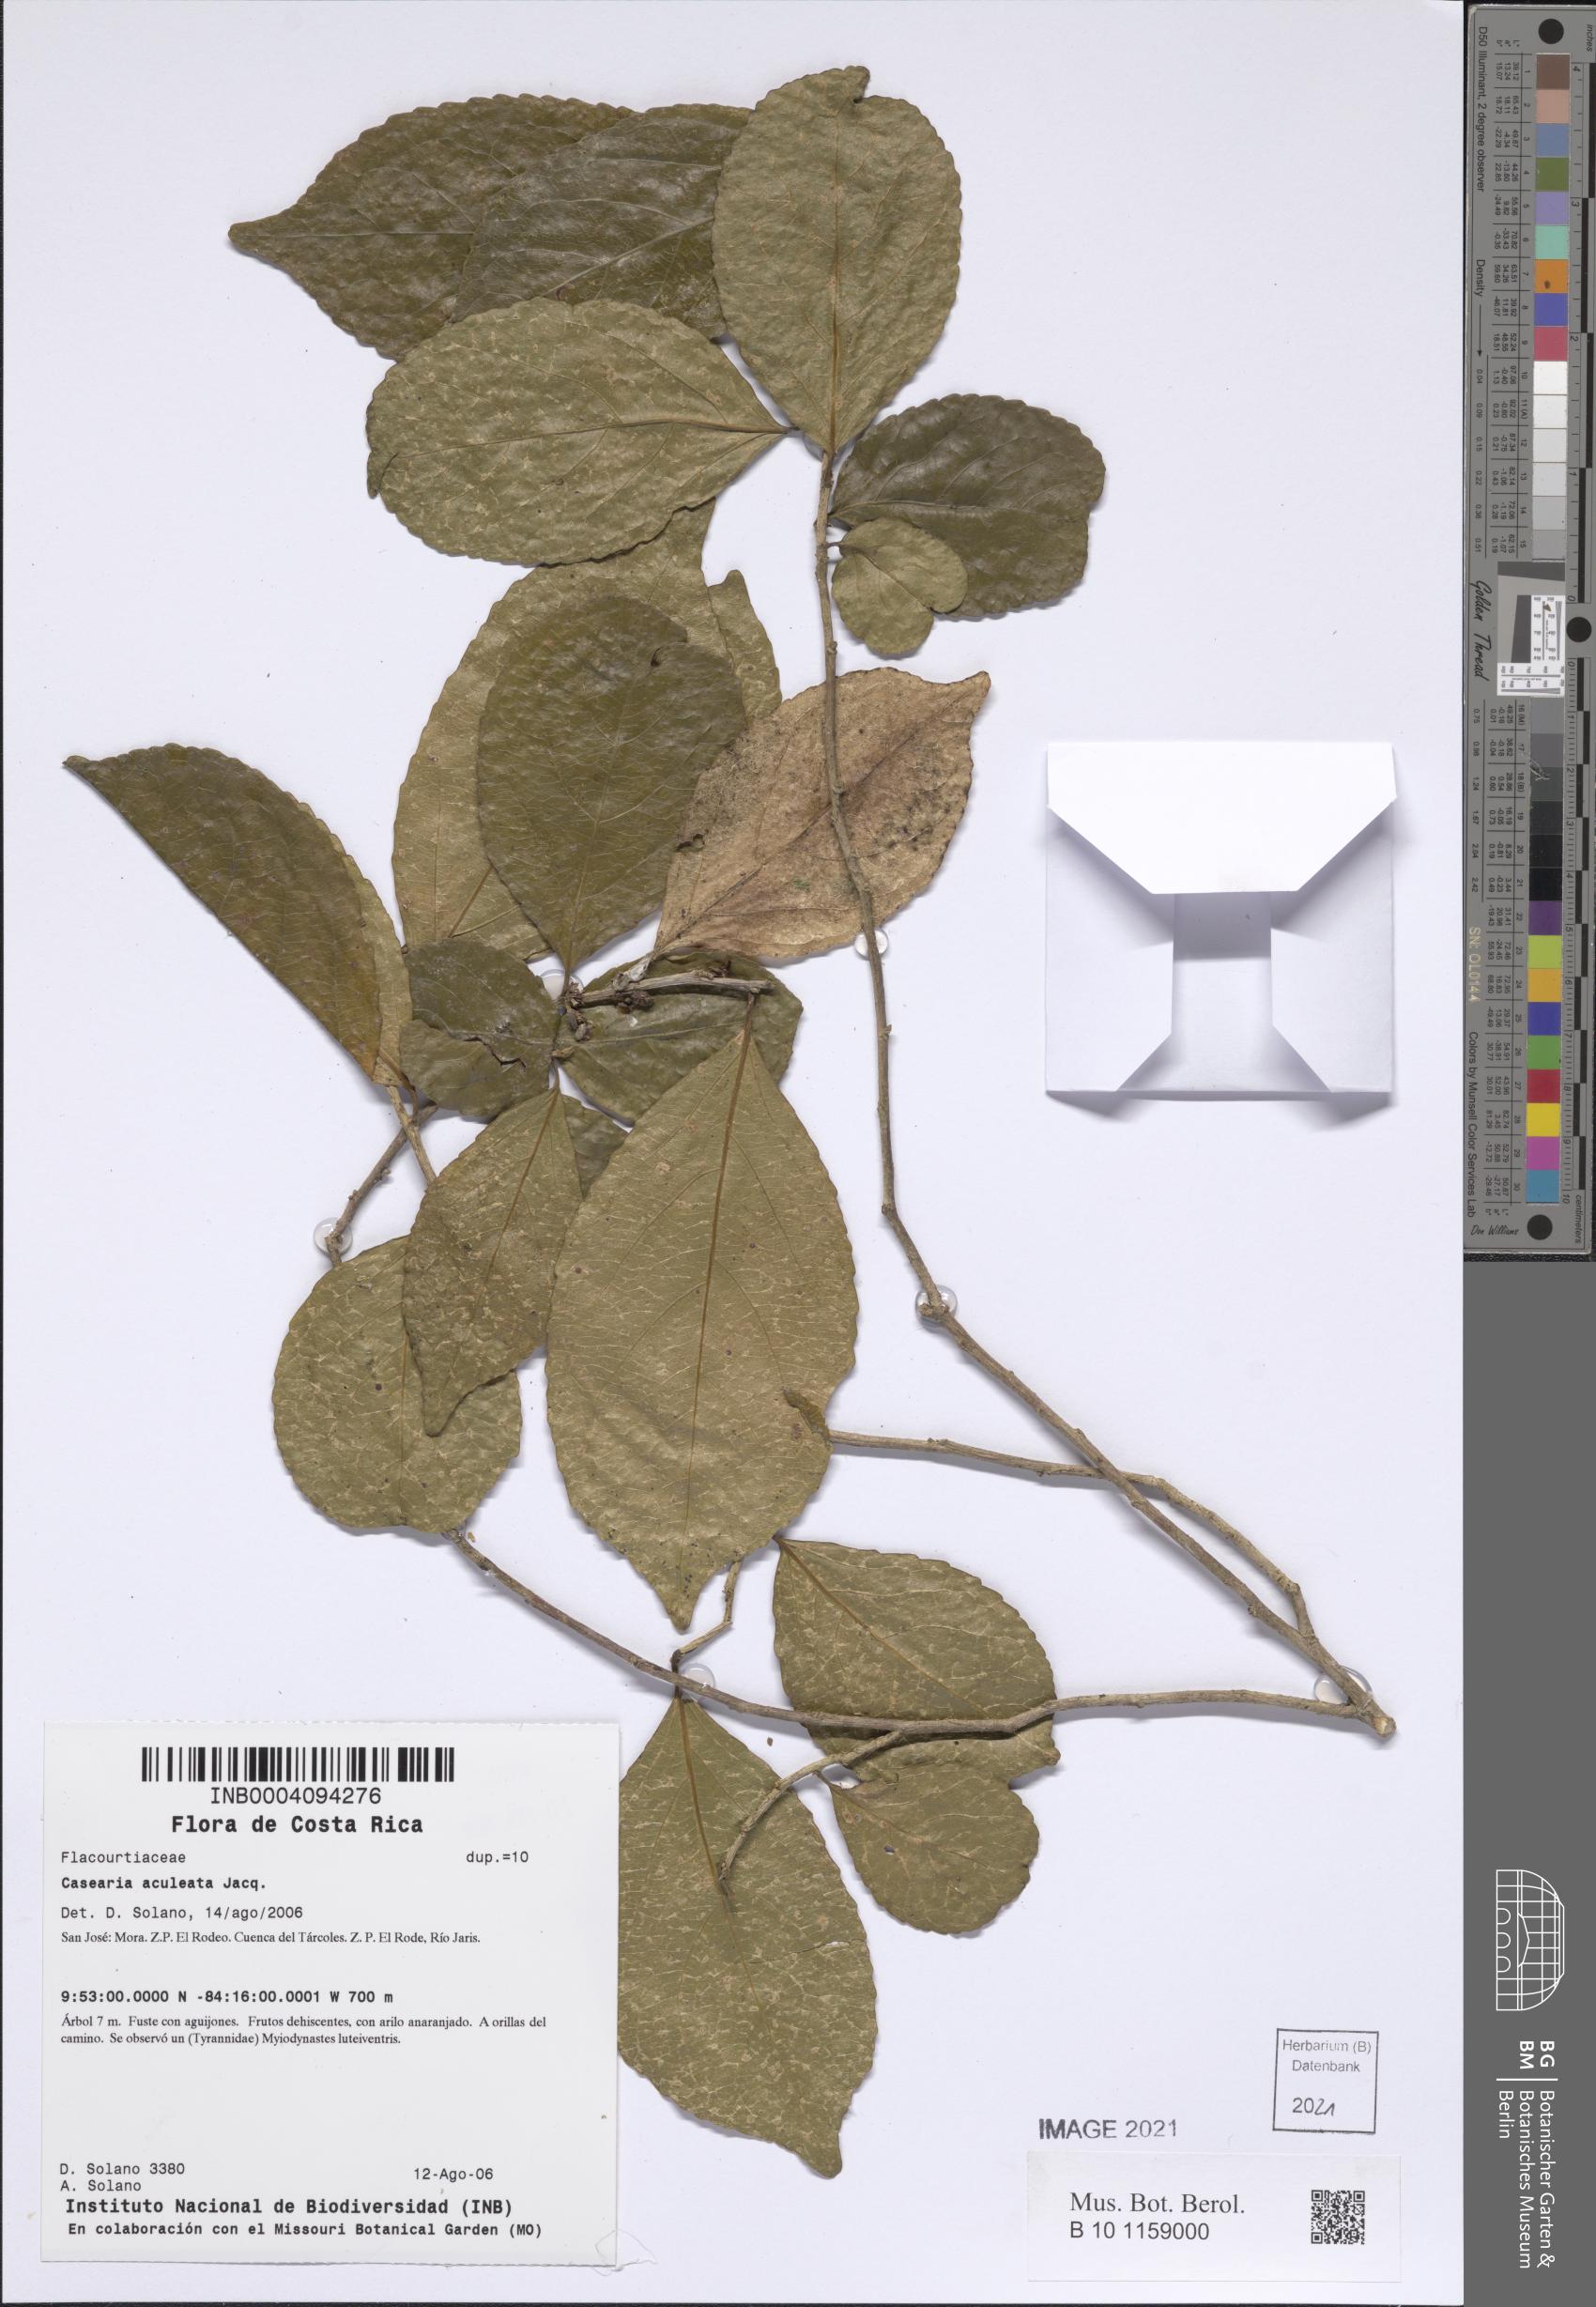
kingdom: Plantae
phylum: Tracheophyta
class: Magnoliopsida
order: Malpighiales
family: Salicaceae
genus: Casearia
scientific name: Casearia stjohnii
